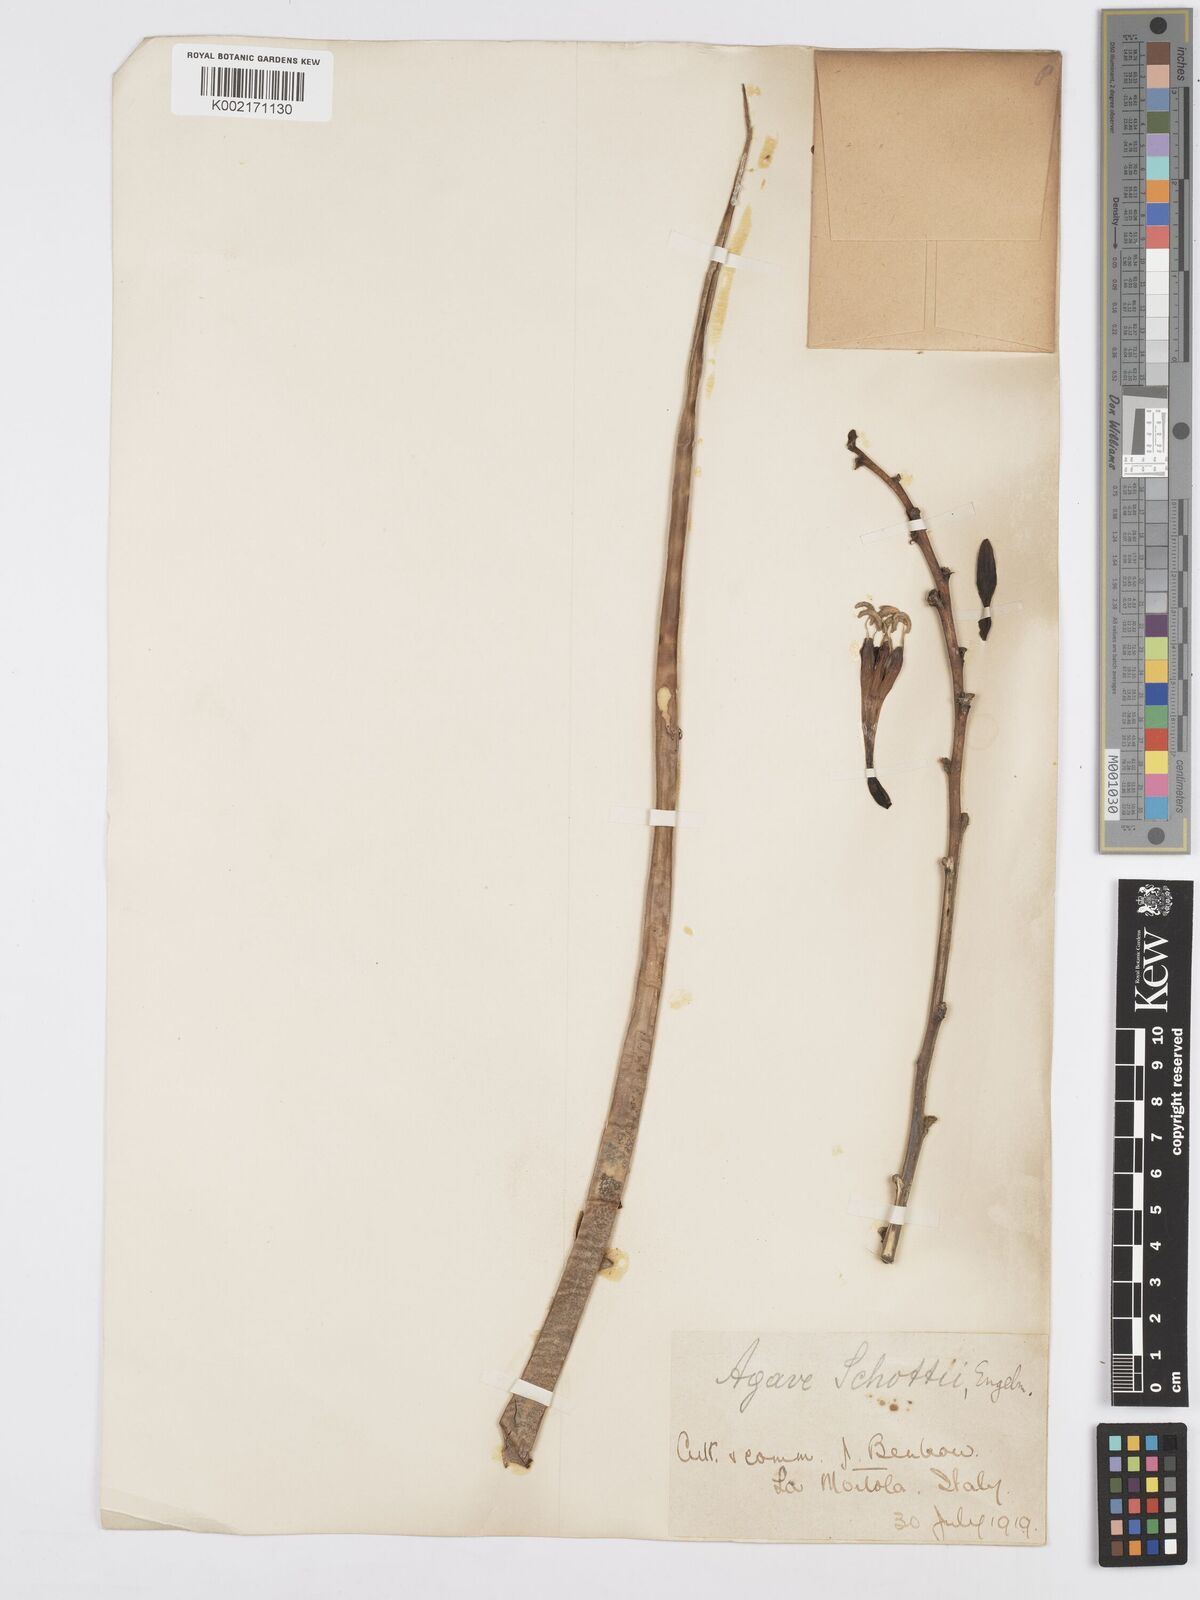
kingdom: Plantae
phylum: Tracheophyta
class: Liliopsida
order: Asparagales
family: Asparagaceae
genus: Agave
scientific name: Agave schottii
